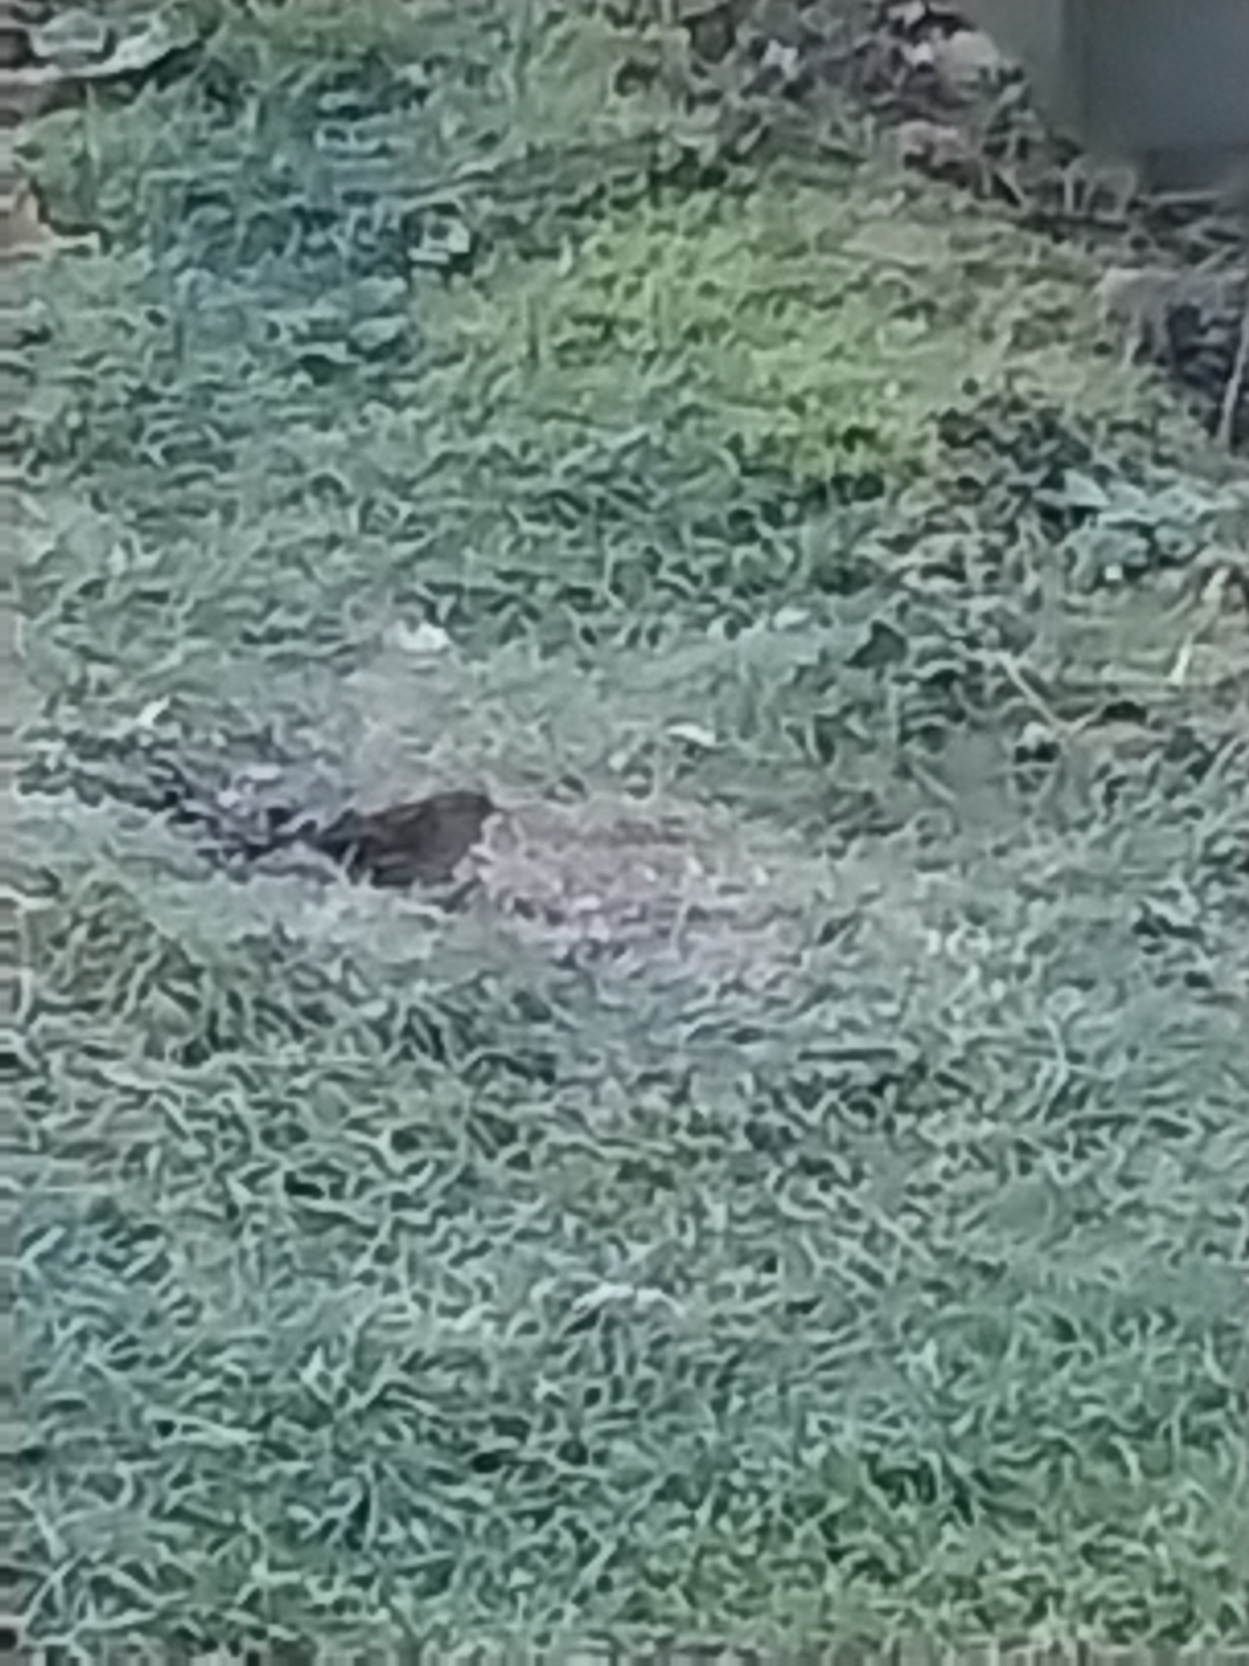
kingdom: Animalia
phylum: Chordata
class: Aves
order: Passeriformes
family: Prunellidae
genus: Prunella
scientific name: Prunella modularis
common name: Jernspurv
